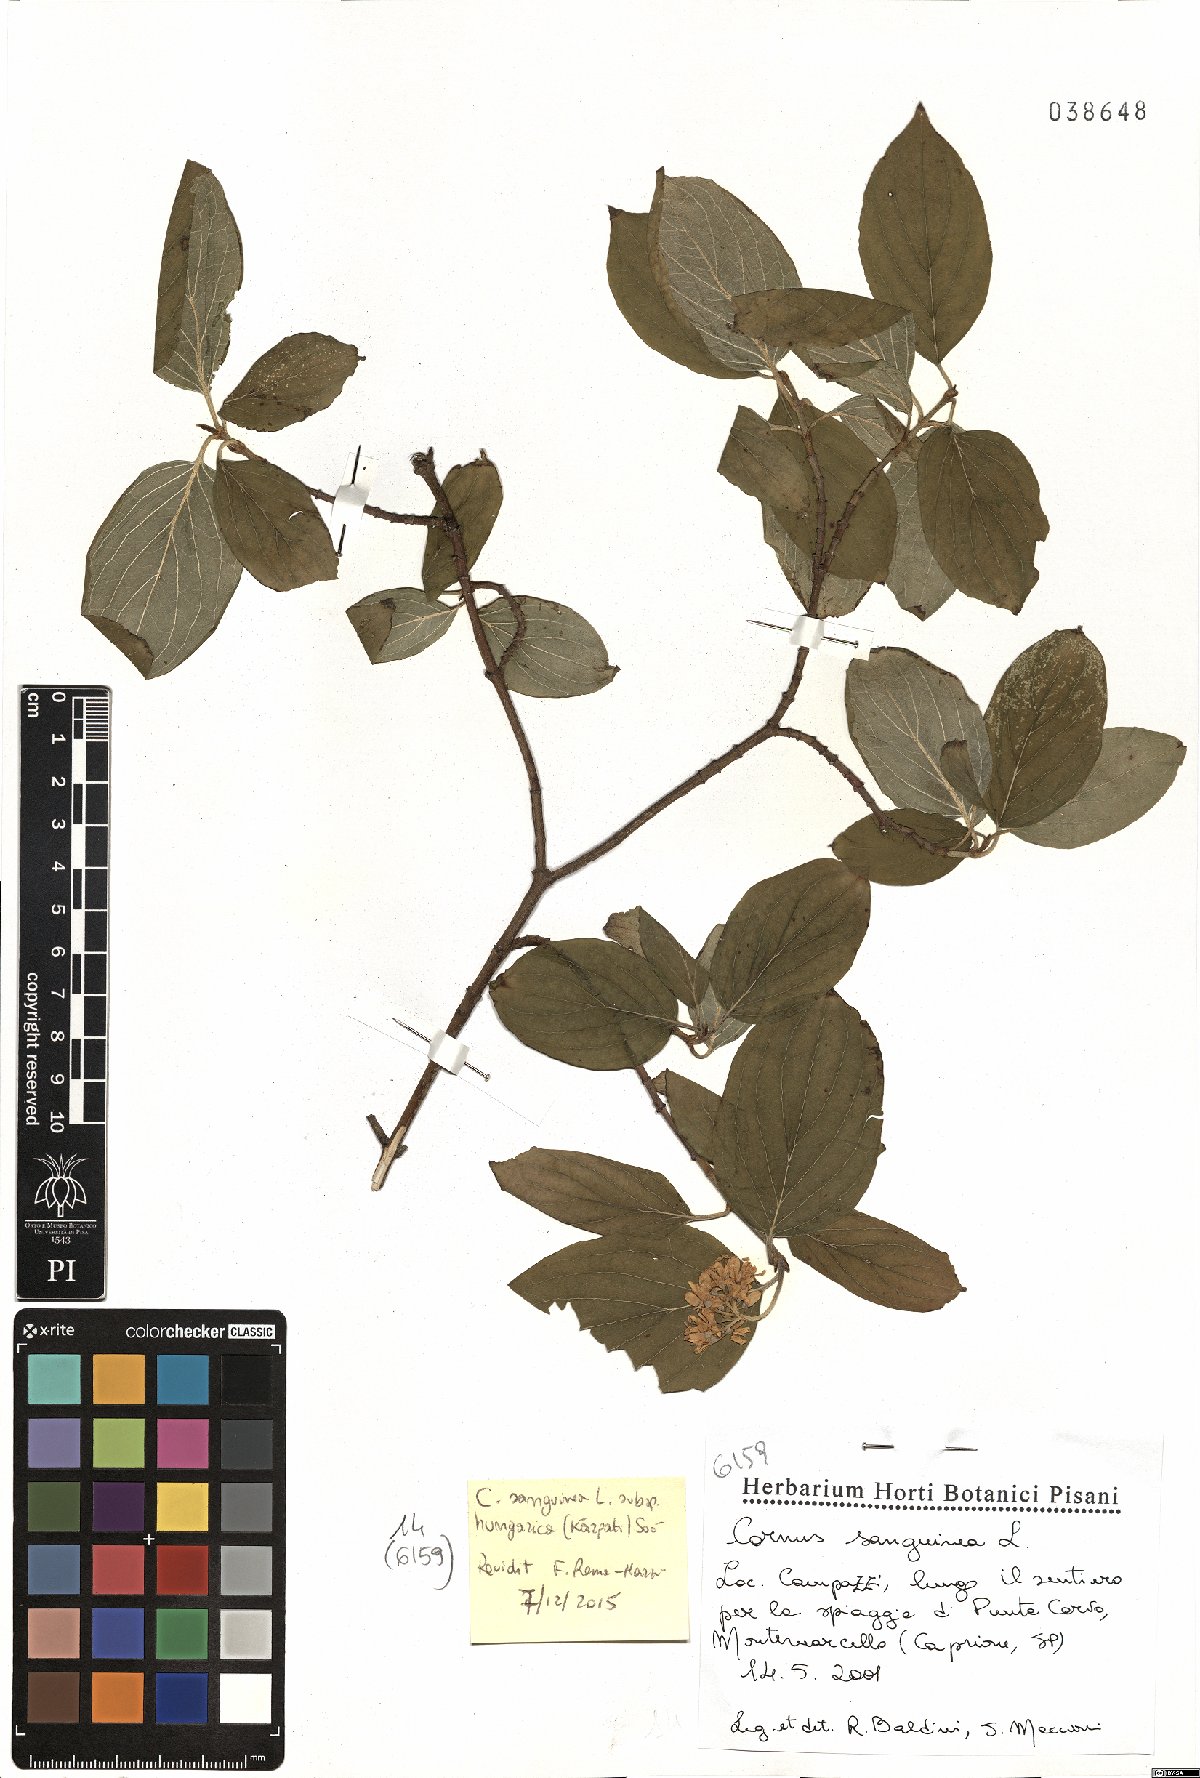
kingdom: Plantae
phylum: Tracheophyta
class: Magnoliopsida
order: Cornales
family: Cornaceae
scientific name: Cornaceae
